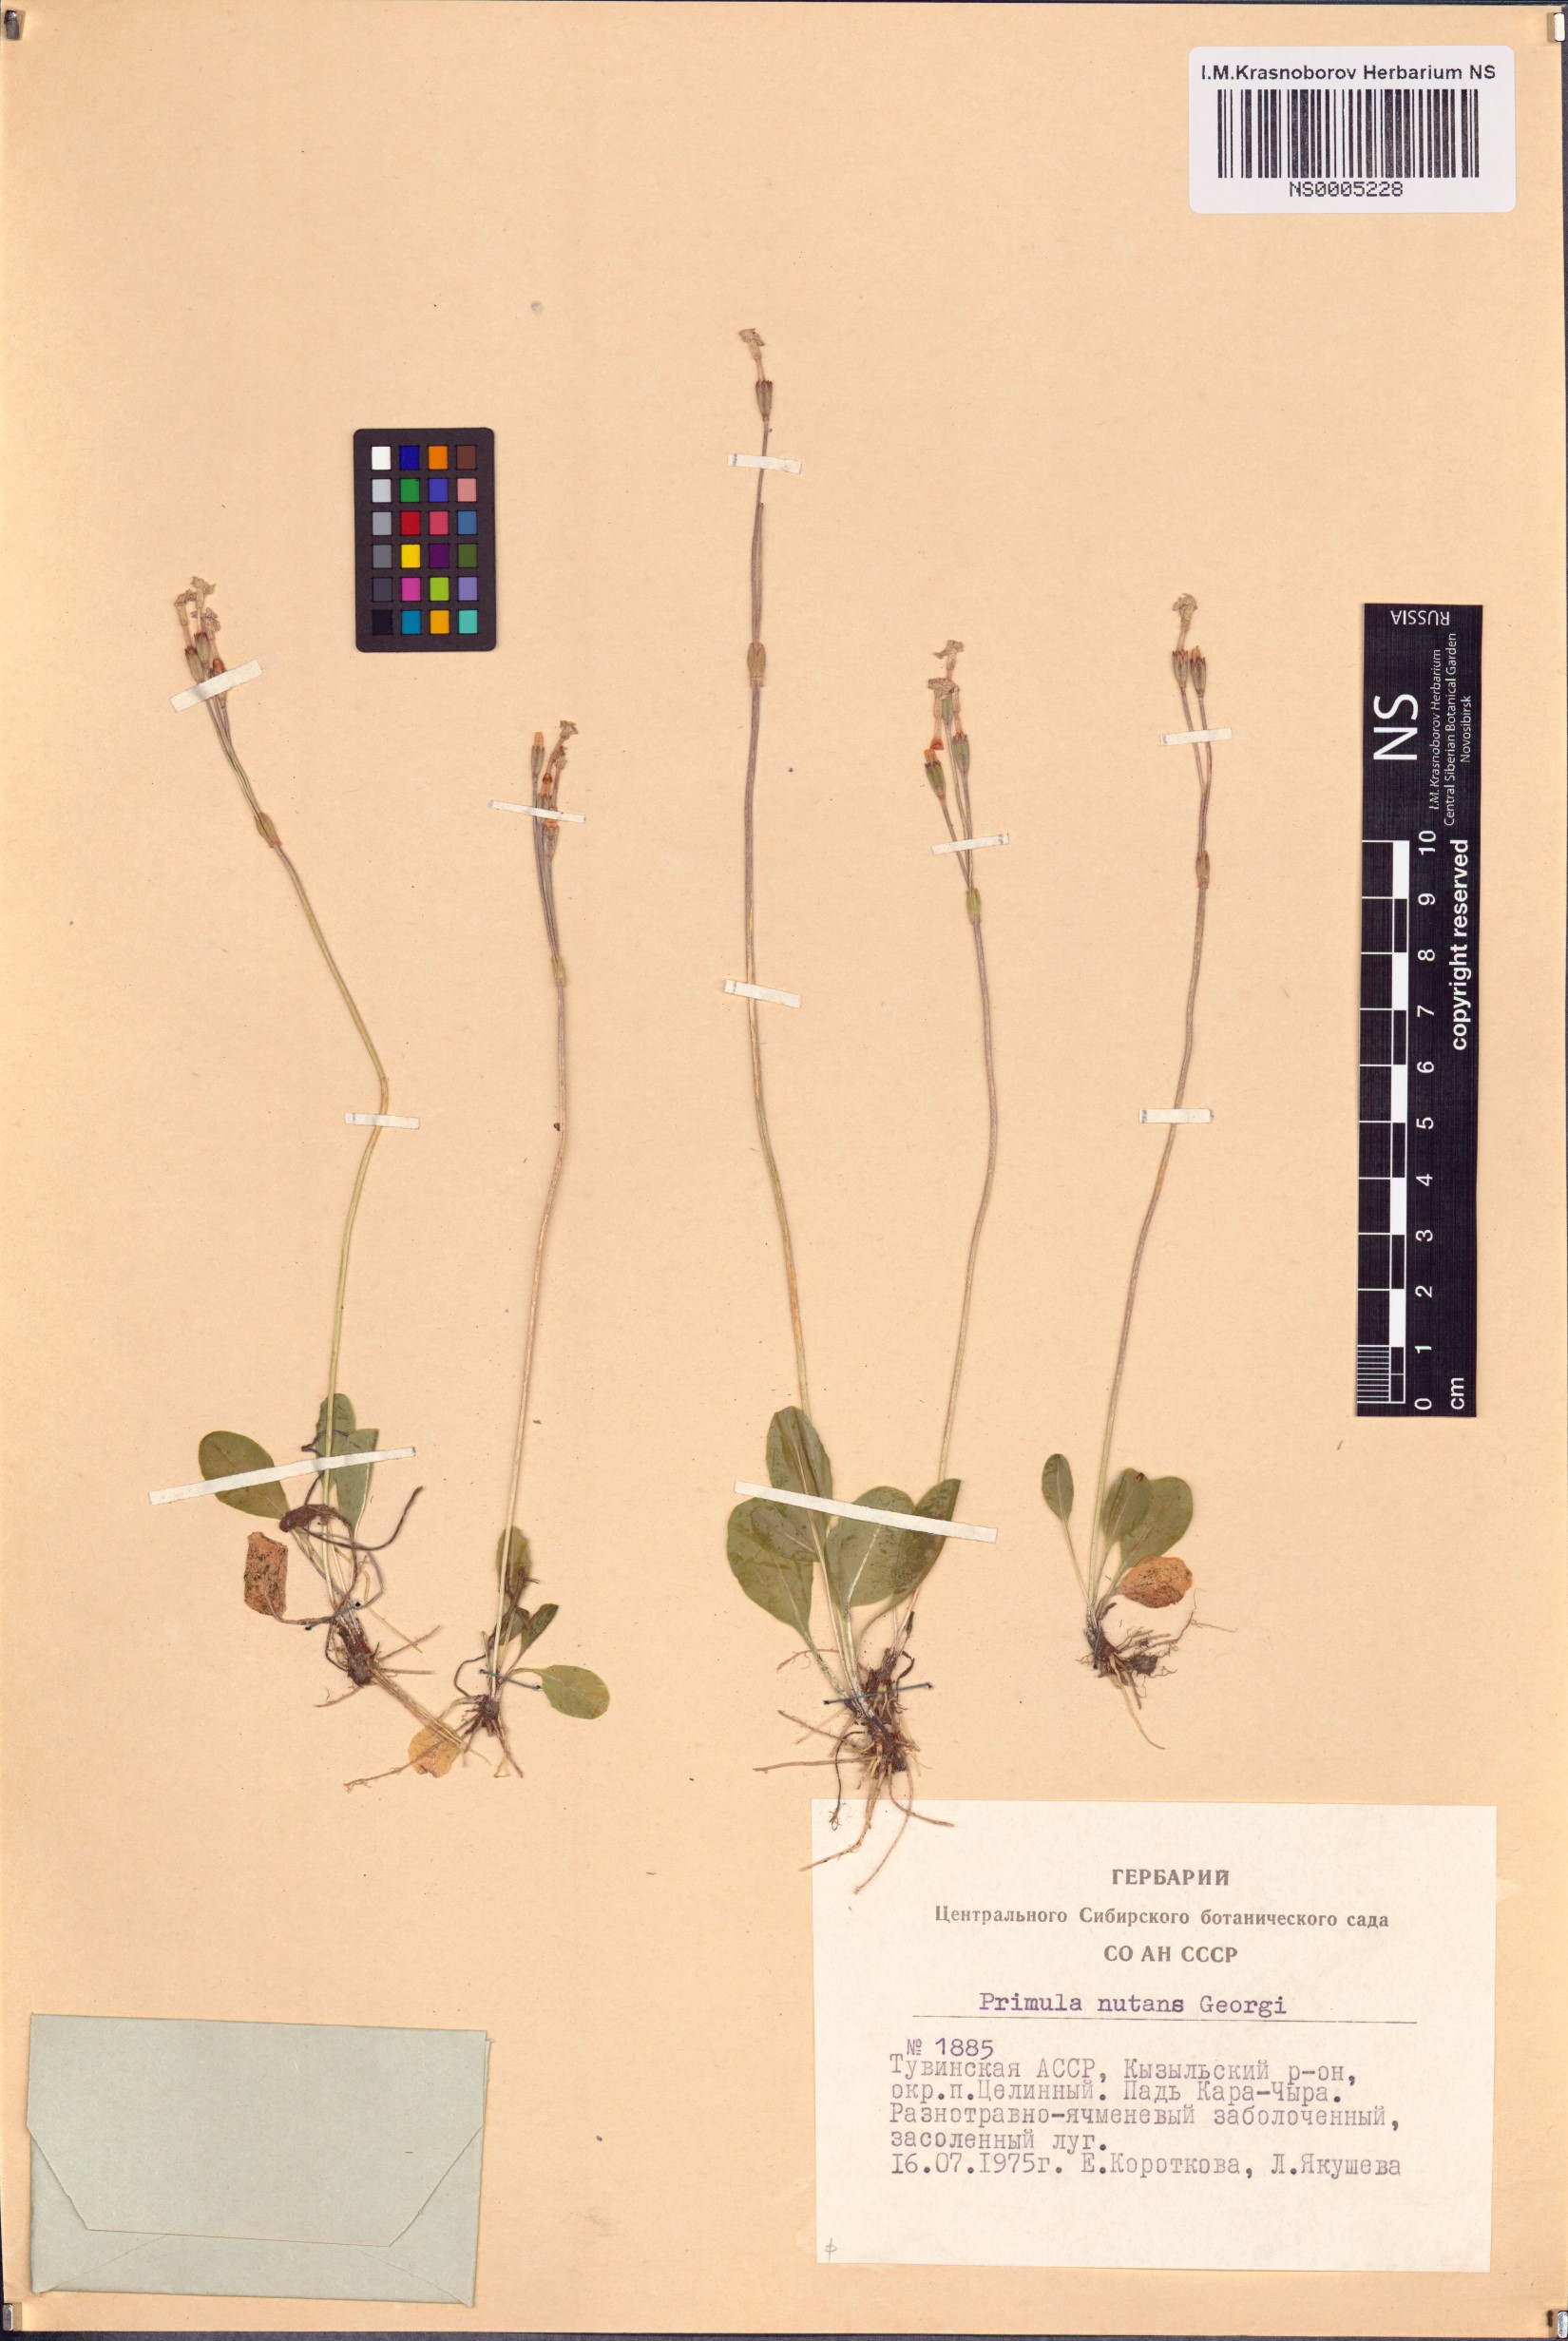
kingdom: Plantae
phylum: Tracheophyta
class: Magnoliopsida
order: Ericales
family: Primulaceae
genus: Primula
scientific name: Primula nutans
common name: Siberian primrose
